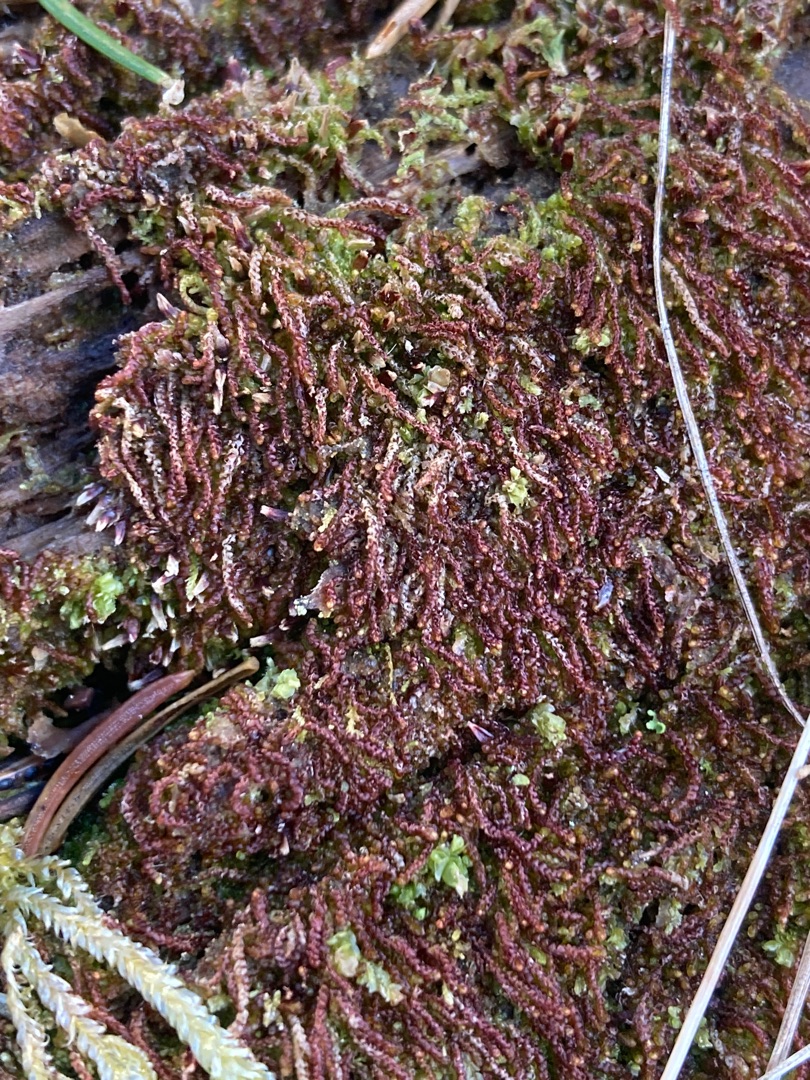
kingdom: Plantae
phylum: Marchantiophyta
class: Jungermanniopsida
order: Jungermanniales
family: Cephaloziaceae
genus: Nowellia
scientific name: Nowellia curvifolia
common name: Krumbladet stødmos
